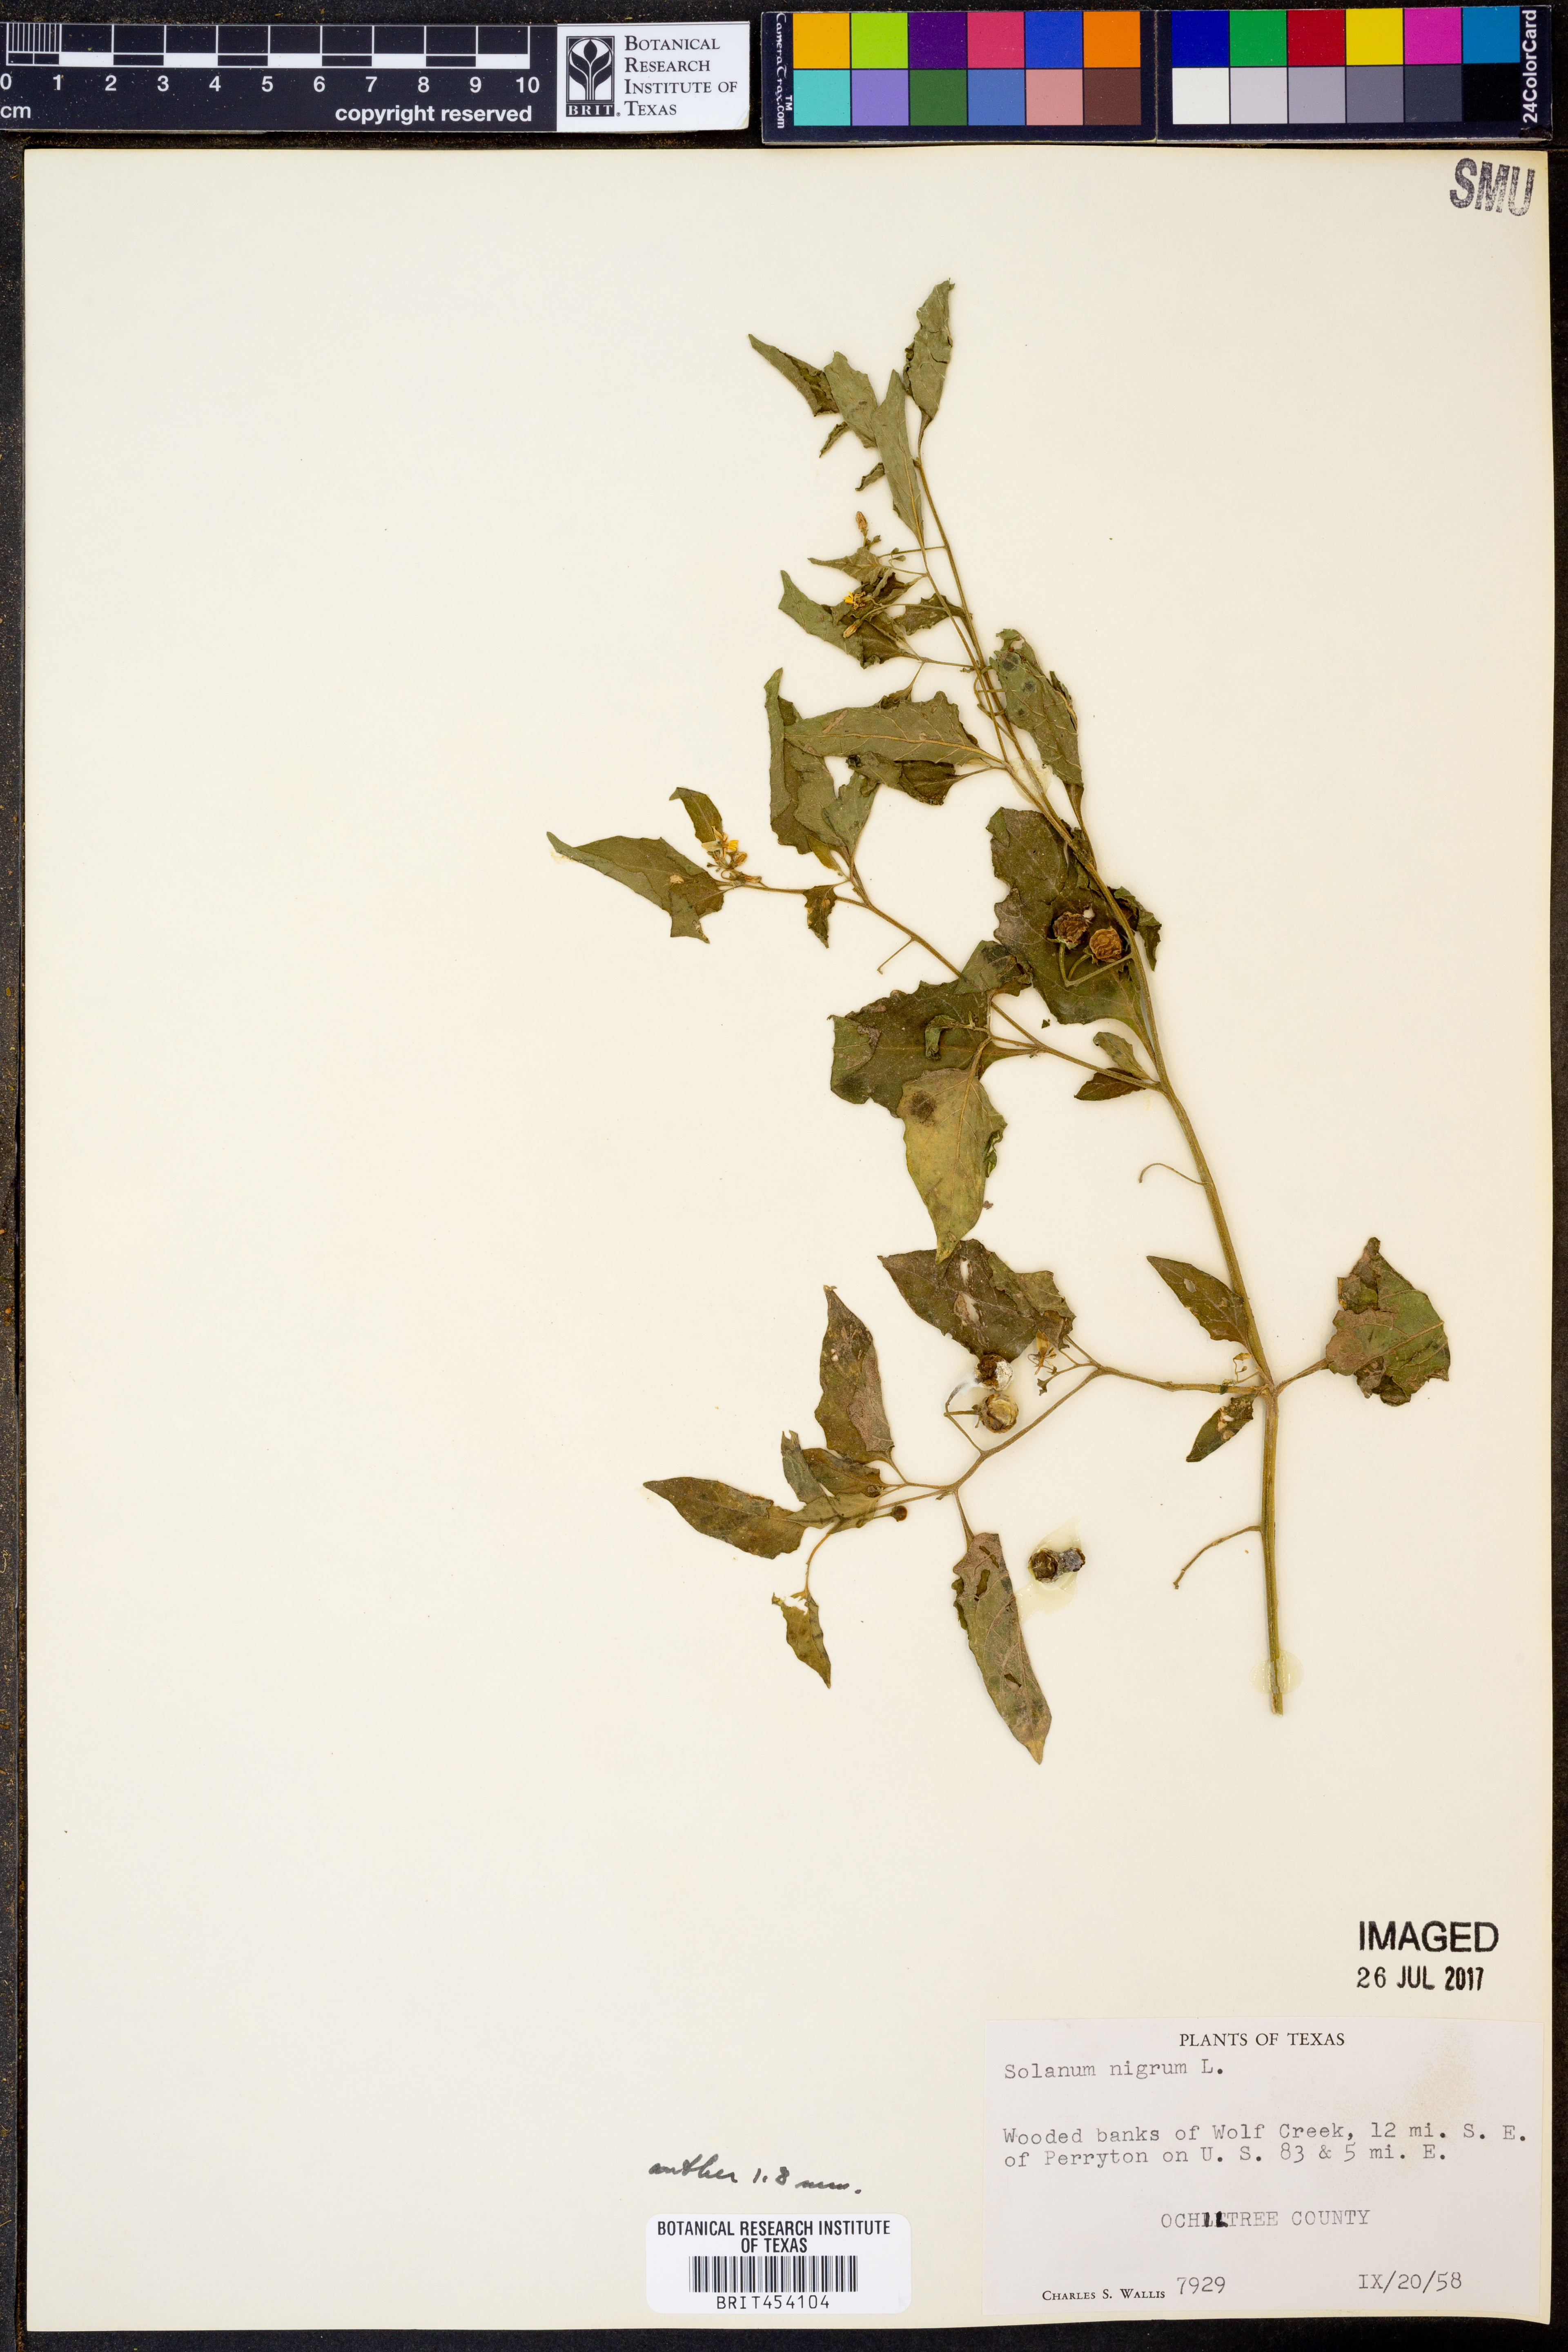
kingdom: Plantae
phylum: Tracheophyta
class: Magnoliopsida
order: Solanales
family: Solanaceae
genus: Solanum
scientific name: Solanum nigrum
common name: Black nightshade
